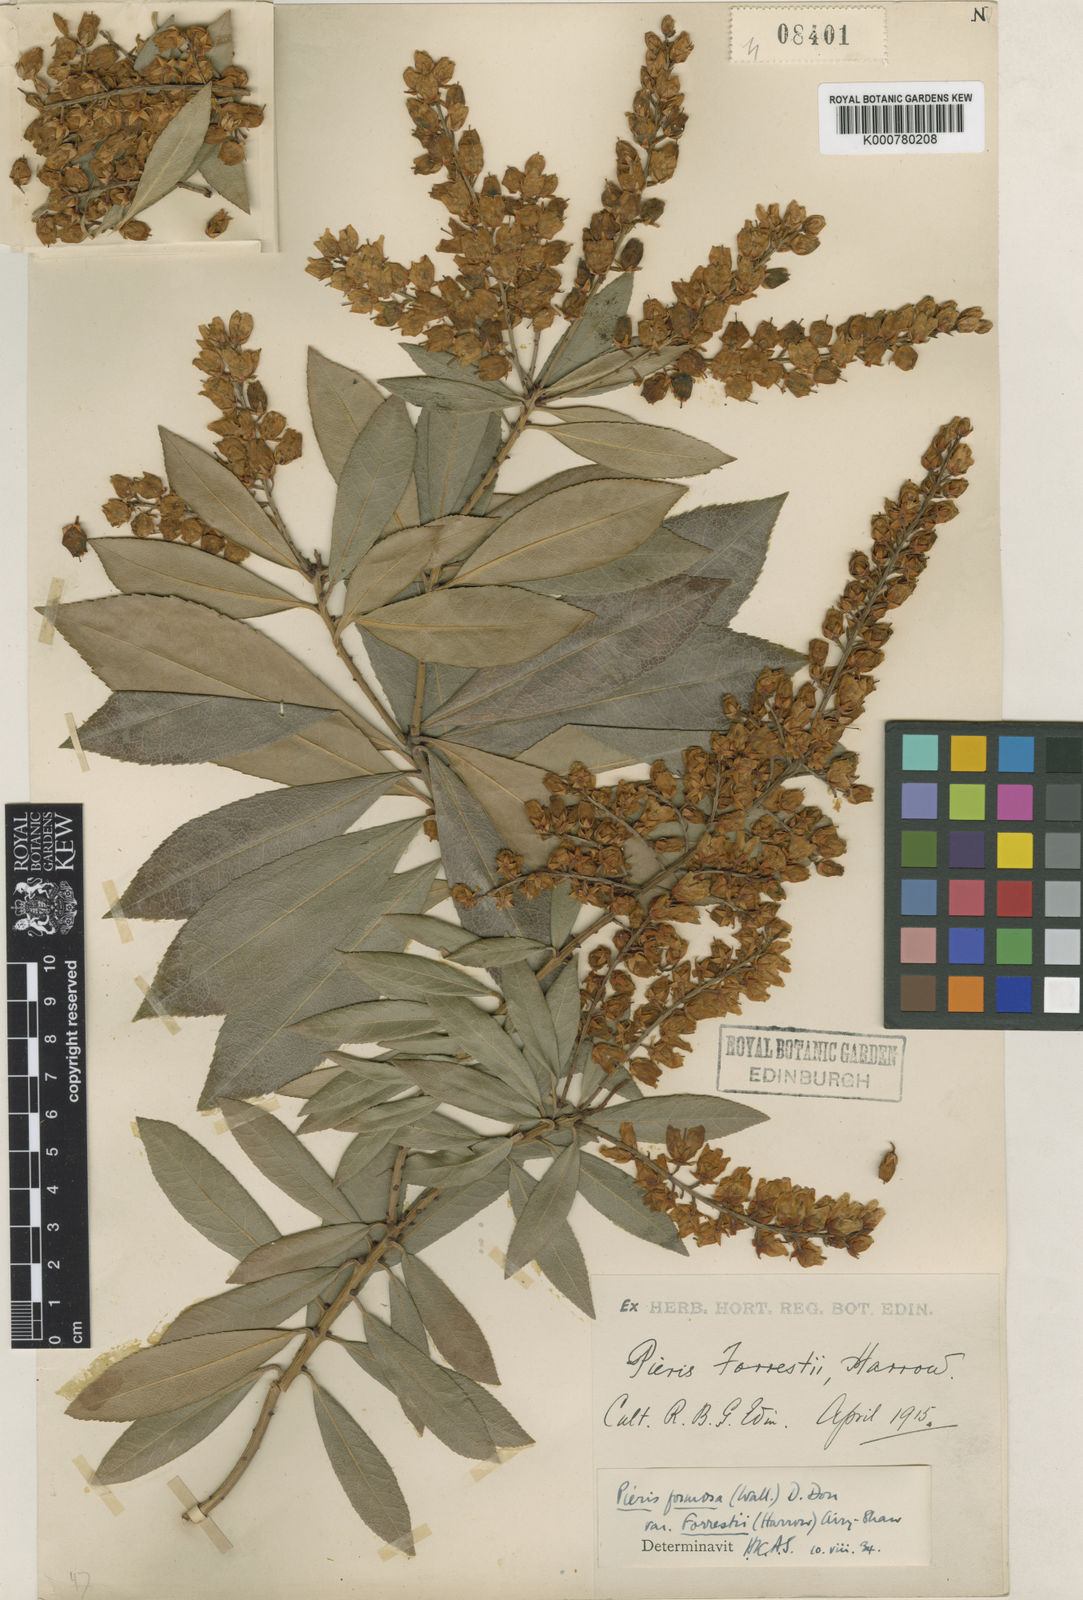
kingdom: Plantae
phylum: Tracheophyta
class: Magnoliopsida
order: Ericales
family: Ericaceae
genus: Pieris
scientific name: Pieris formosa
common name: Formosan pieris
